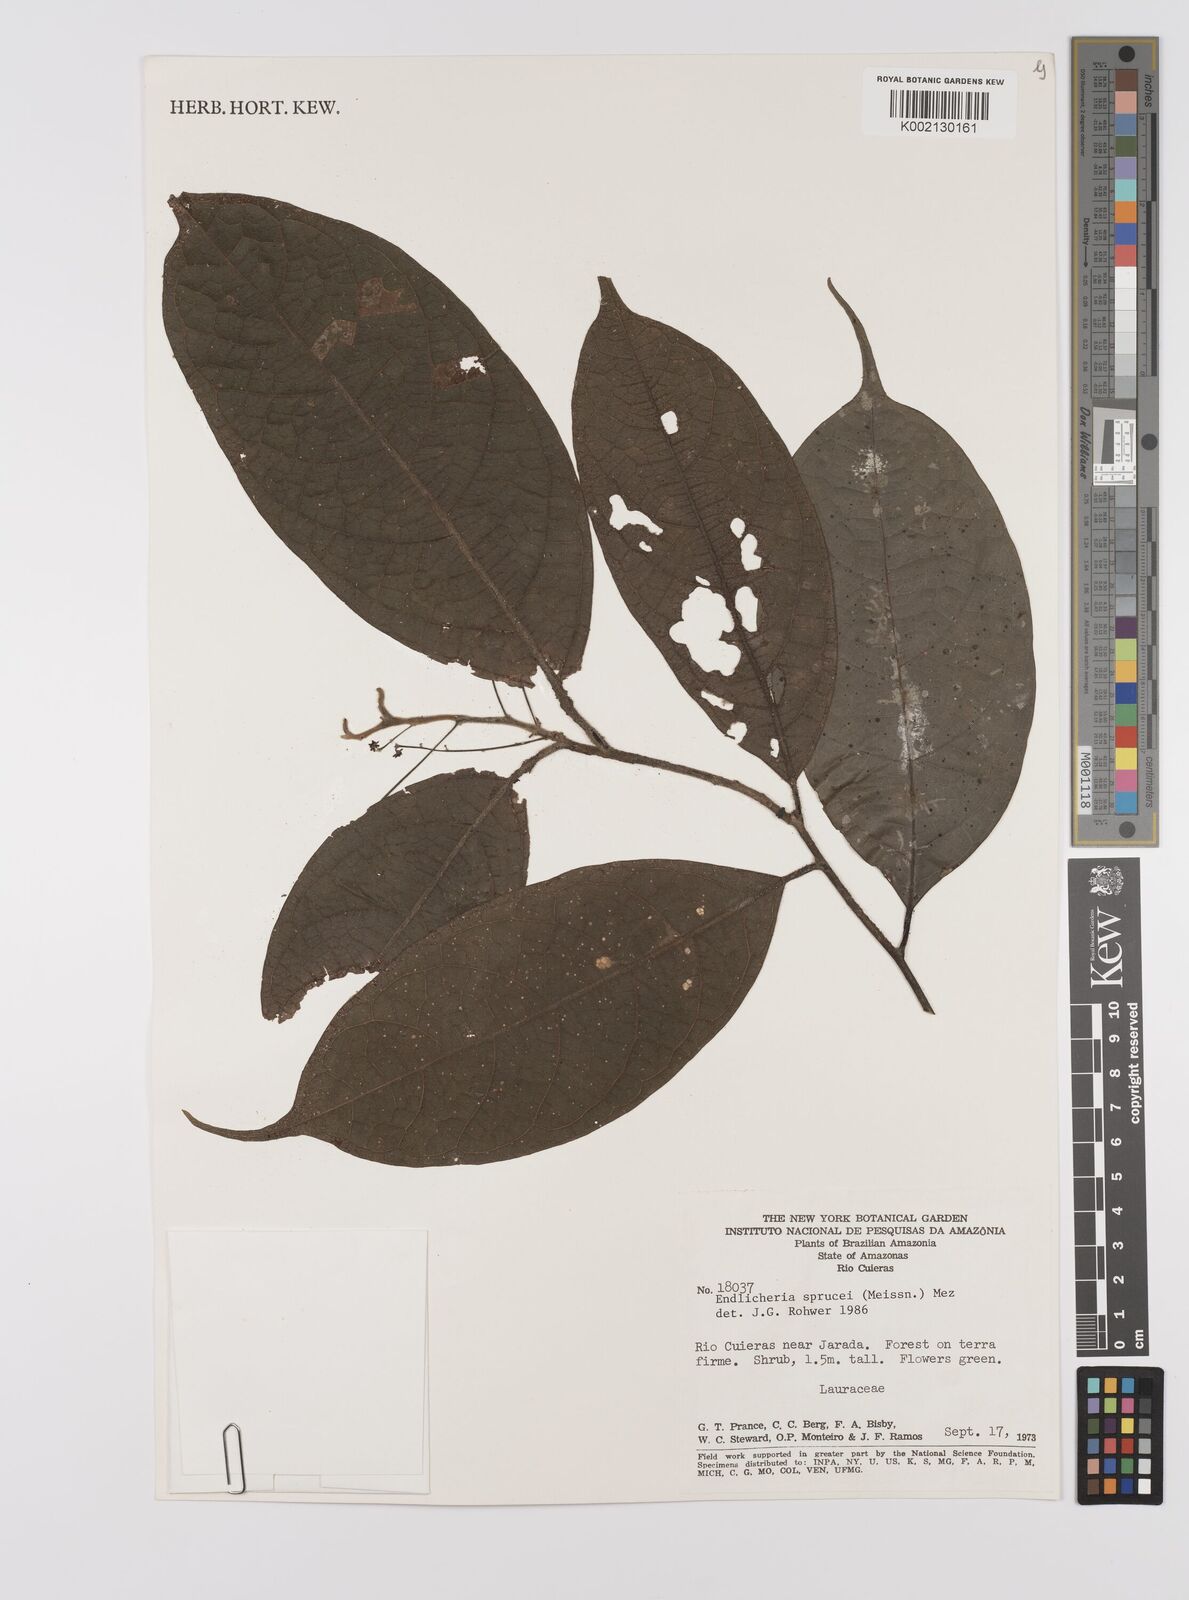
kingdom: Plantae
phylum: Tracheophyta
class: Magnoliopsida
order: Laurales
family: Lauraceae
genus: Endlicheria
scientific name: Endlicheria sprucei
